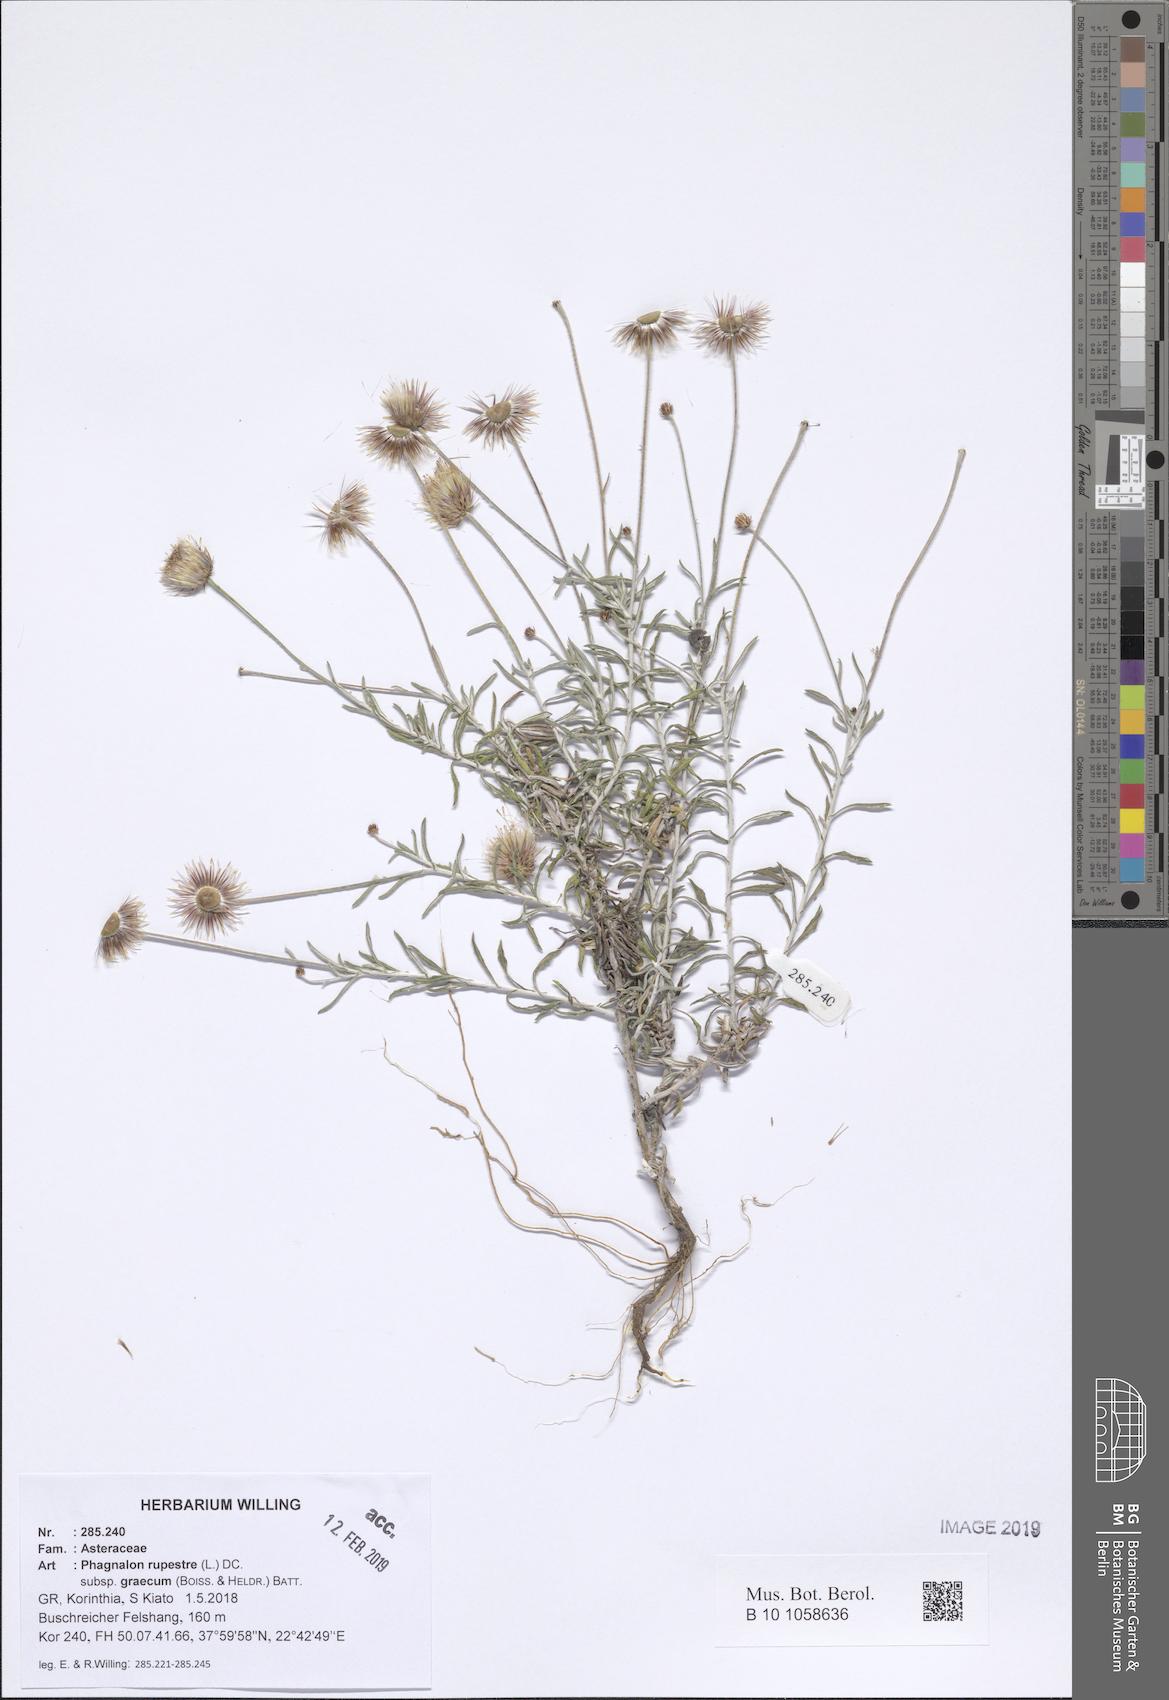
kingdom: Plantae
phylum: Tracheophyta
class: Magnoliopsida
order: Asterales
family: Asteraceae
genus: Phagnalon
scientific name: Phagnalon graecum
